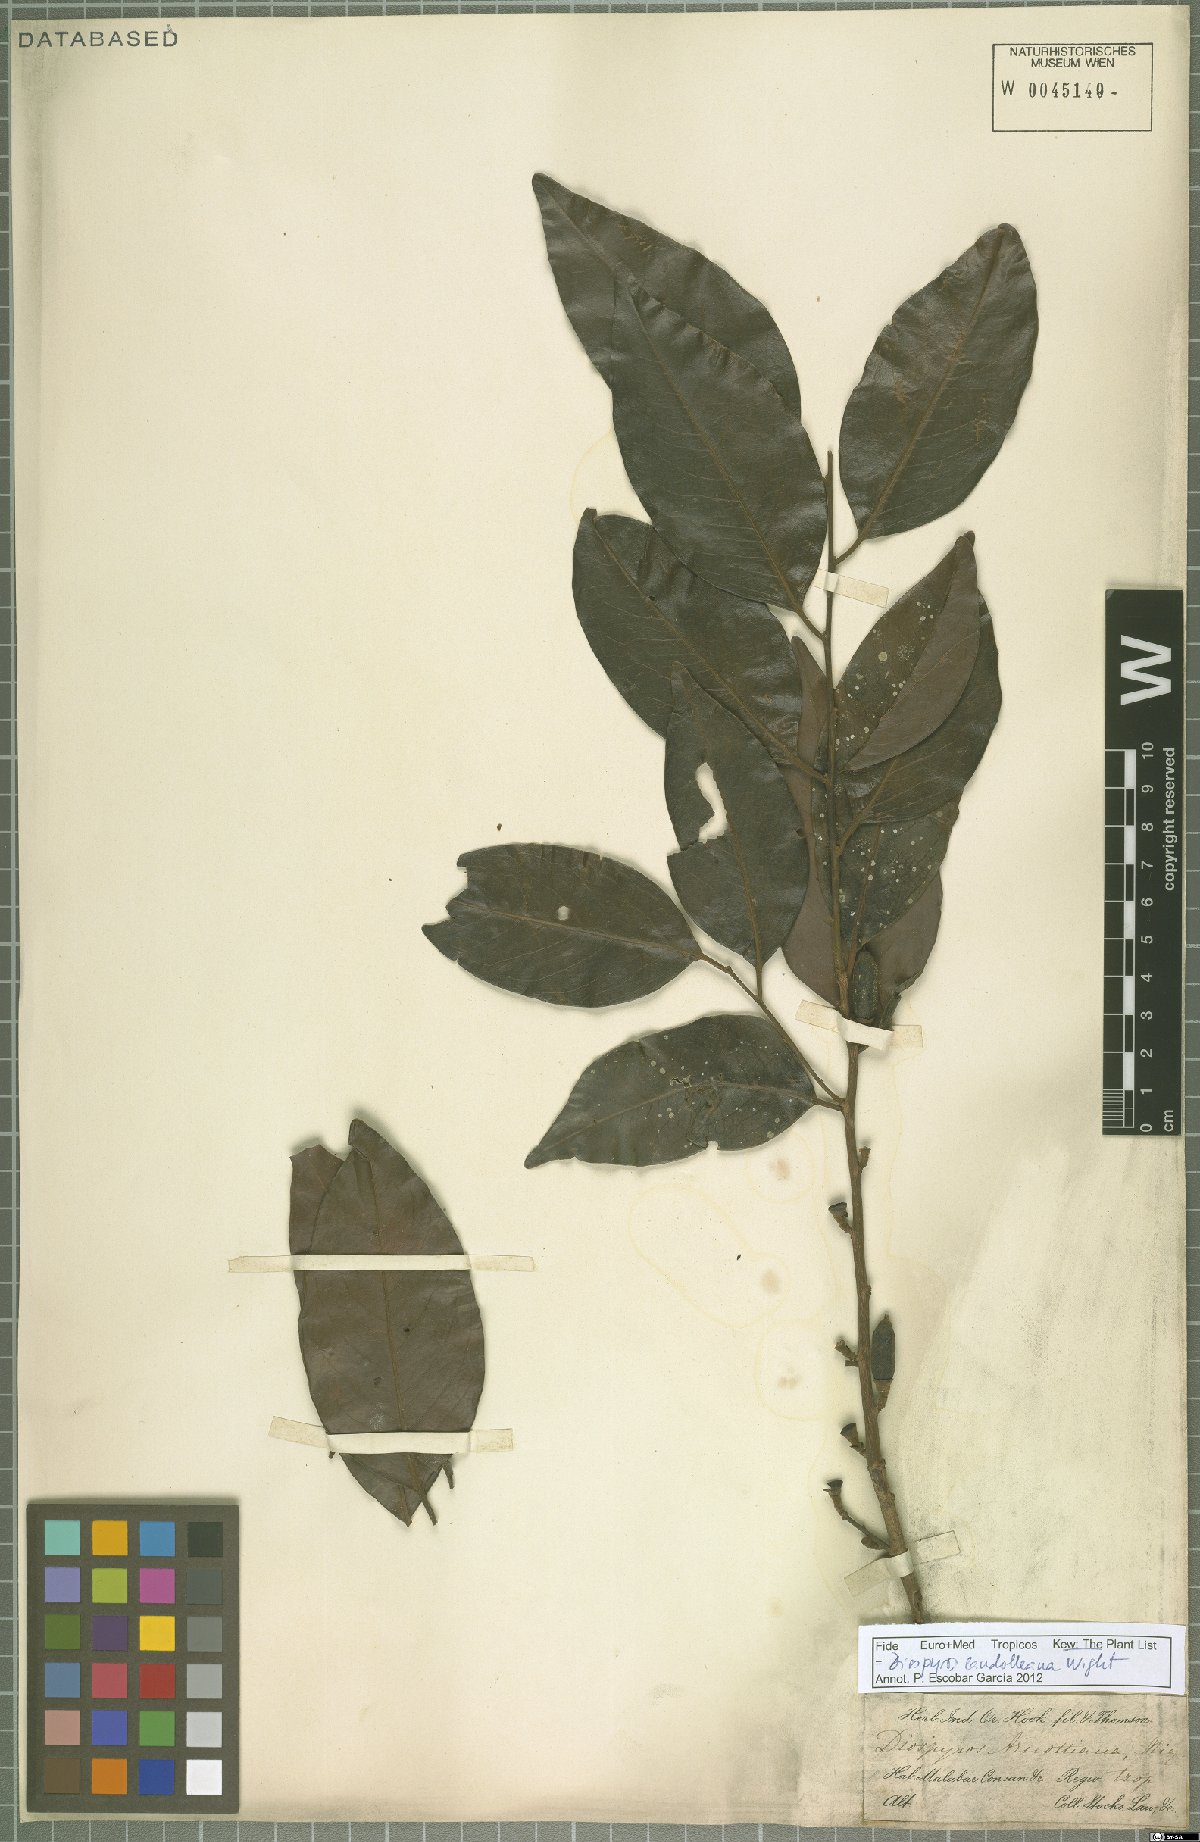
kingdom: Plantae
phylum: Tracheophyta
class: Magnoliopsida
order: Ericales
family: Ebenaceae
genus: Diospyros
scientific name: Diospyros candolleana
